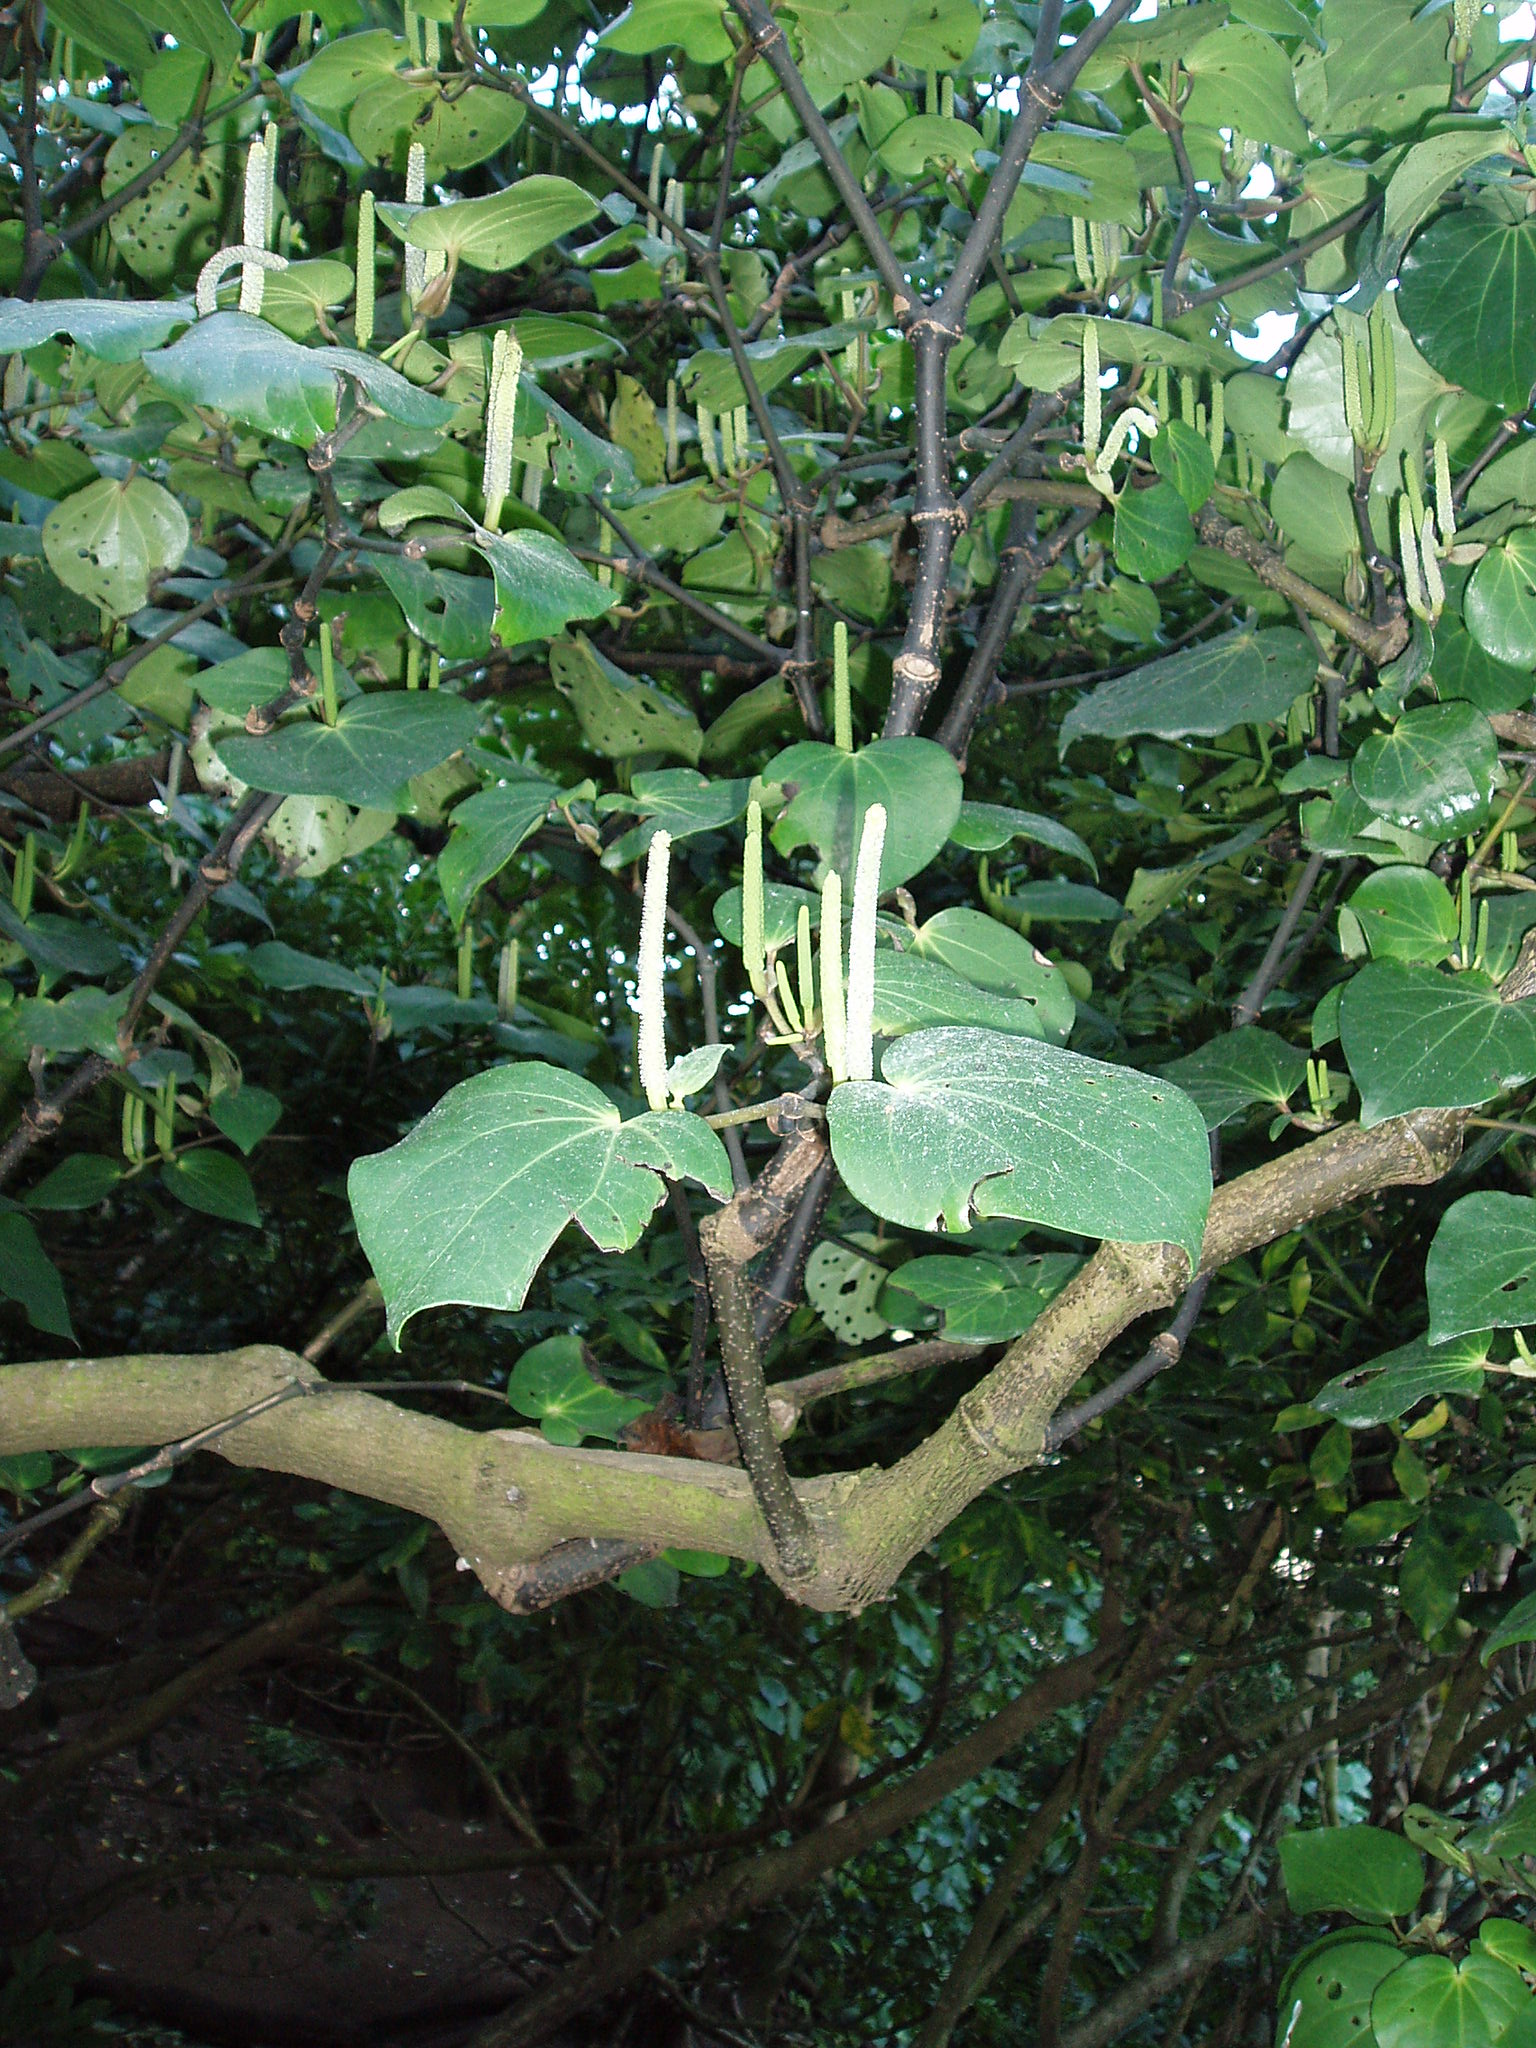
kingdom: Plantae
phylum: Tracheophyta
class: Magnoliopsida
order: Piperales
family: Piperaceae
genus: Macropiper
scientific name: Macropiper excelsum
